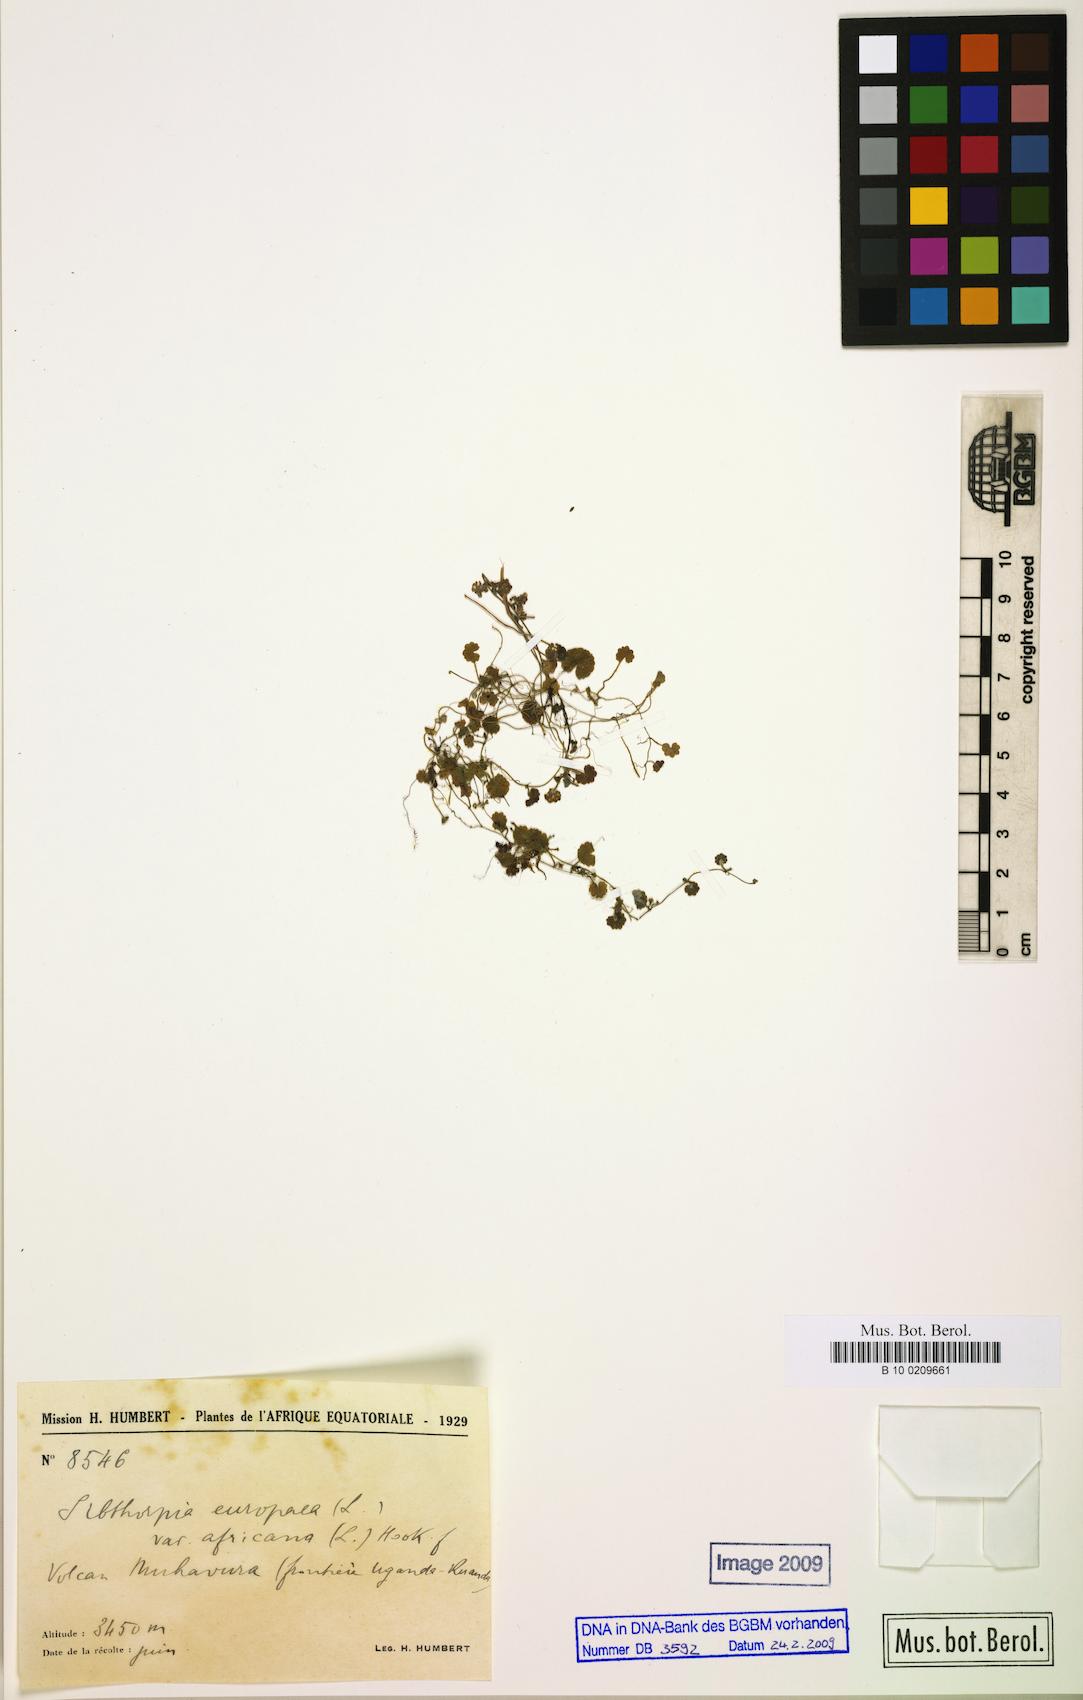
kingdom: Plantae
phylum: Tracheophyta
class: Magnoliopsida
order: Lamiales
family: Plantaginaceae
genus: Sibthorpia
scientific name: Sibthorpia europaea
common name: Cornish moneywort
